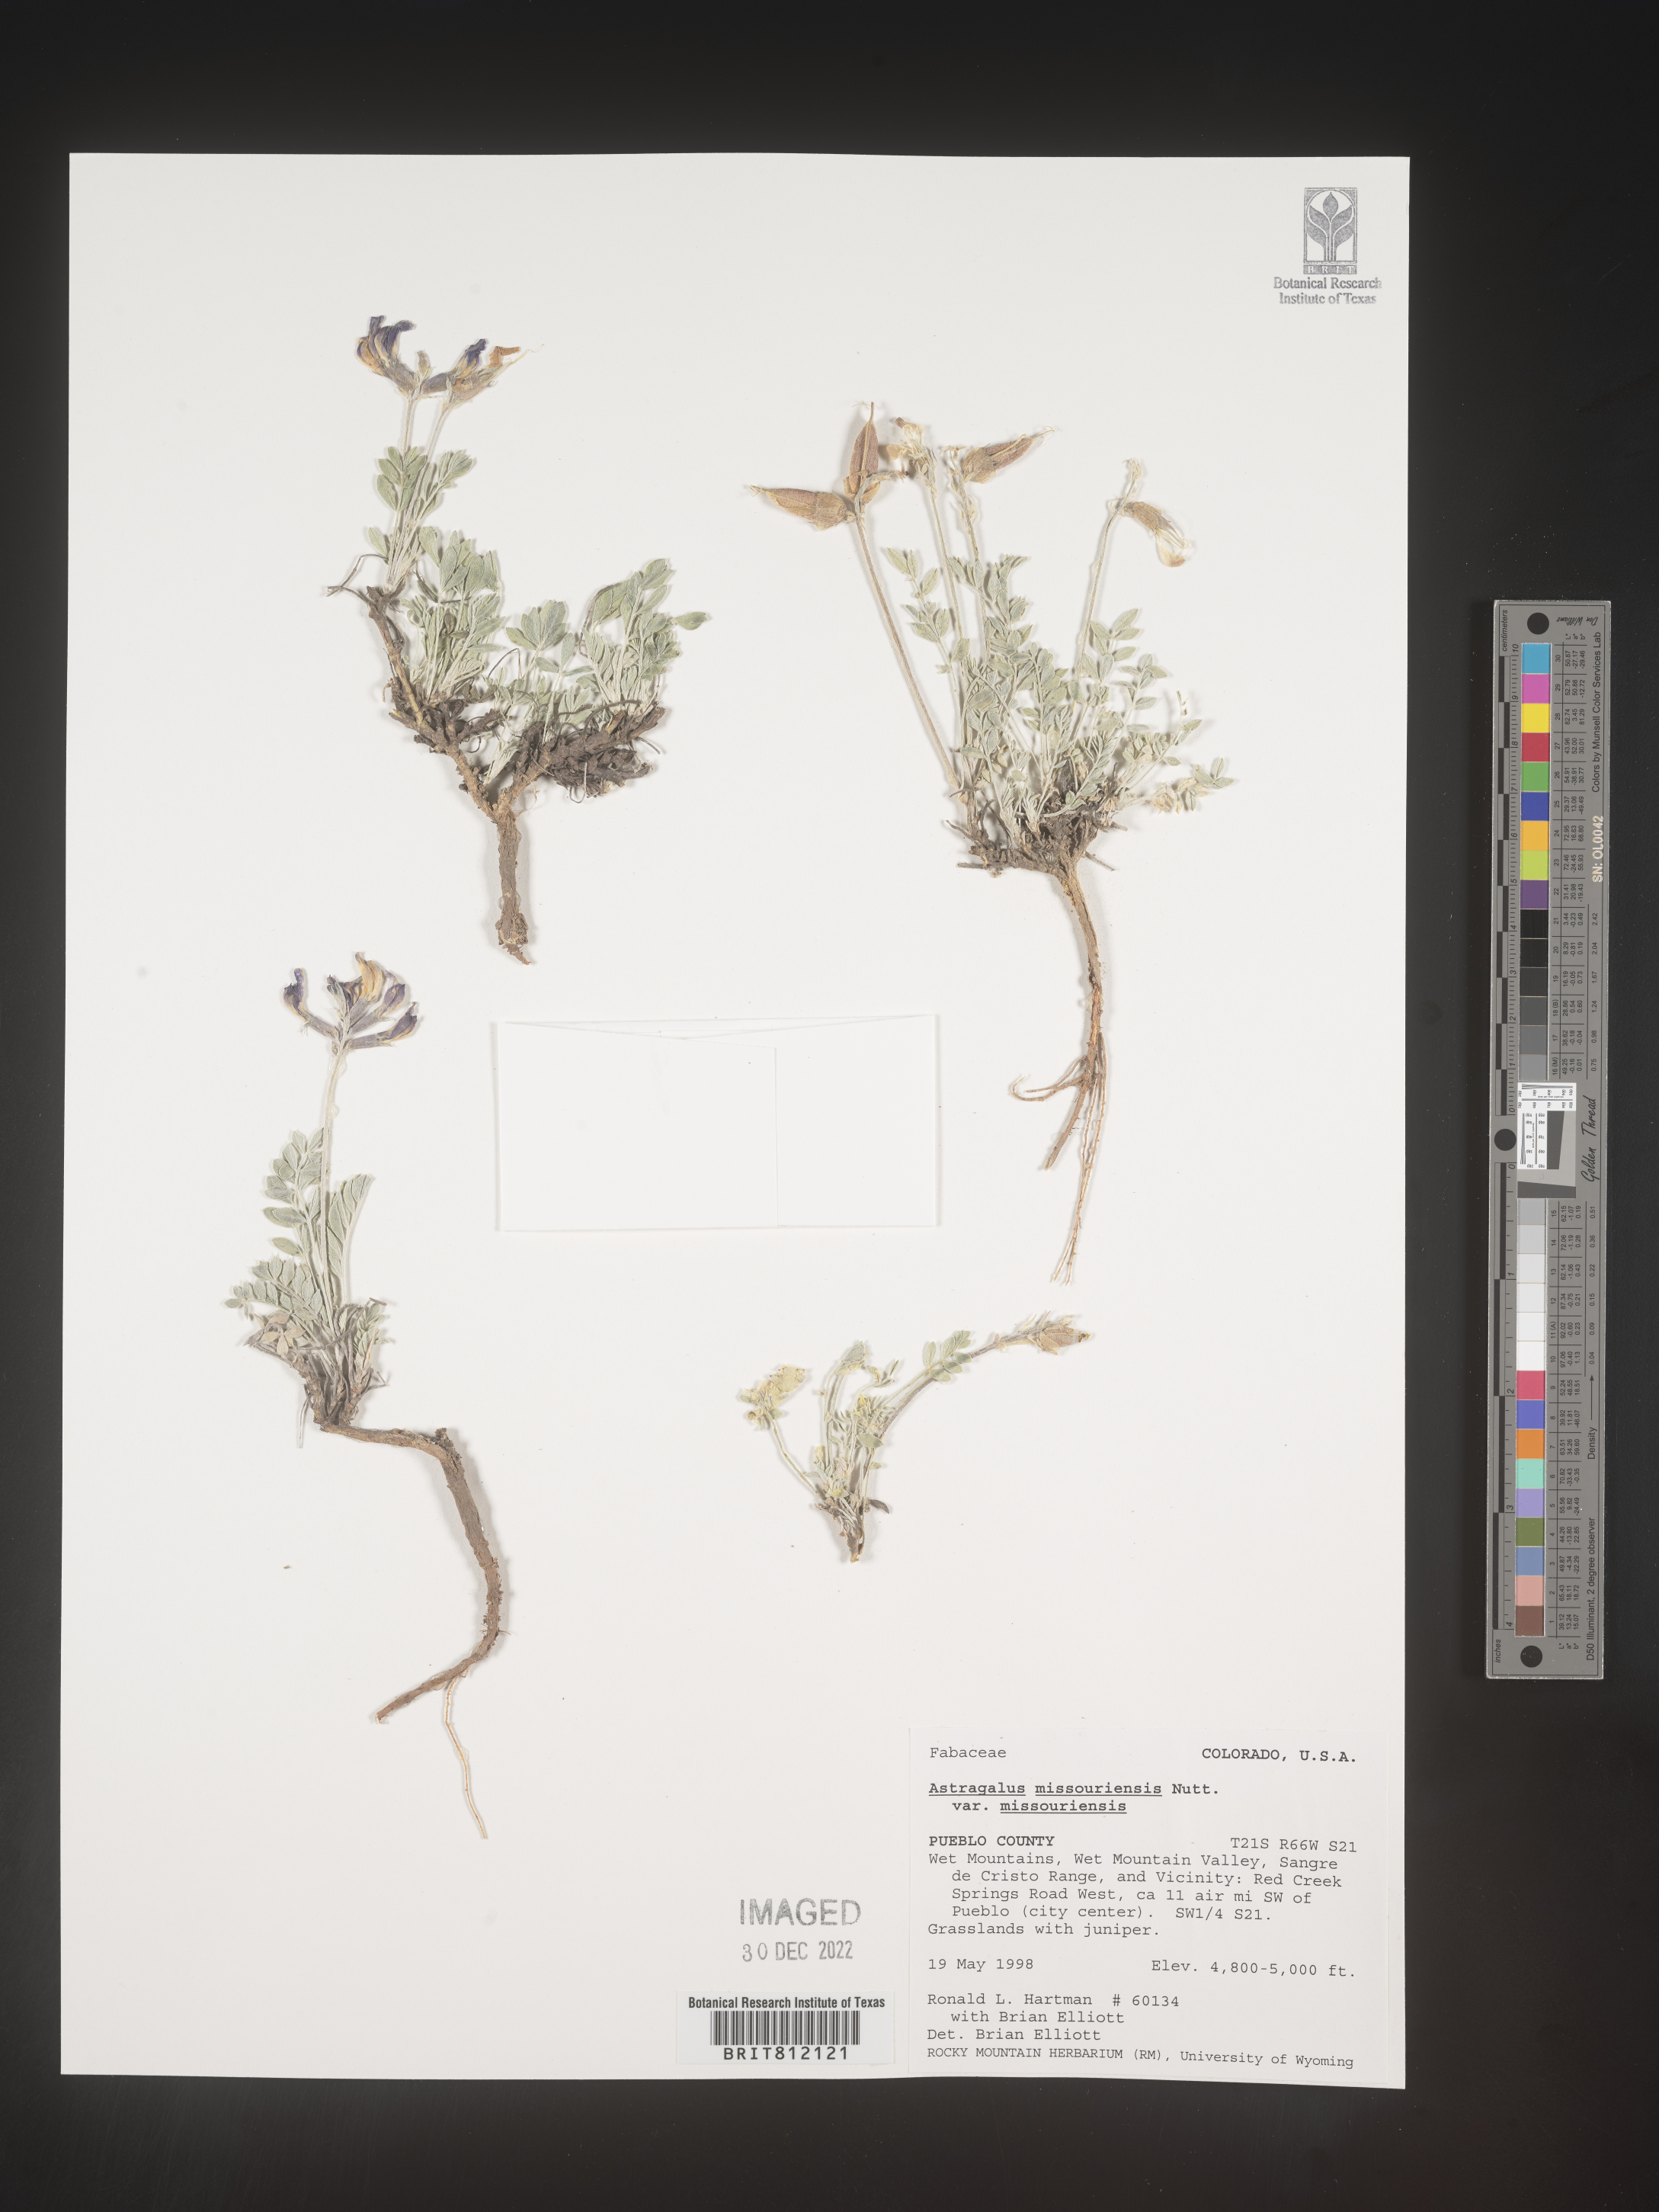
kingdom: Plantae
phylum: Tracheophyta
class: Magnoliopsida
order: Fabales
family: Fabaceae
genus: Astragalus
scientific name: Astragalus missouriensis
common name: Missouri milk-vetch
